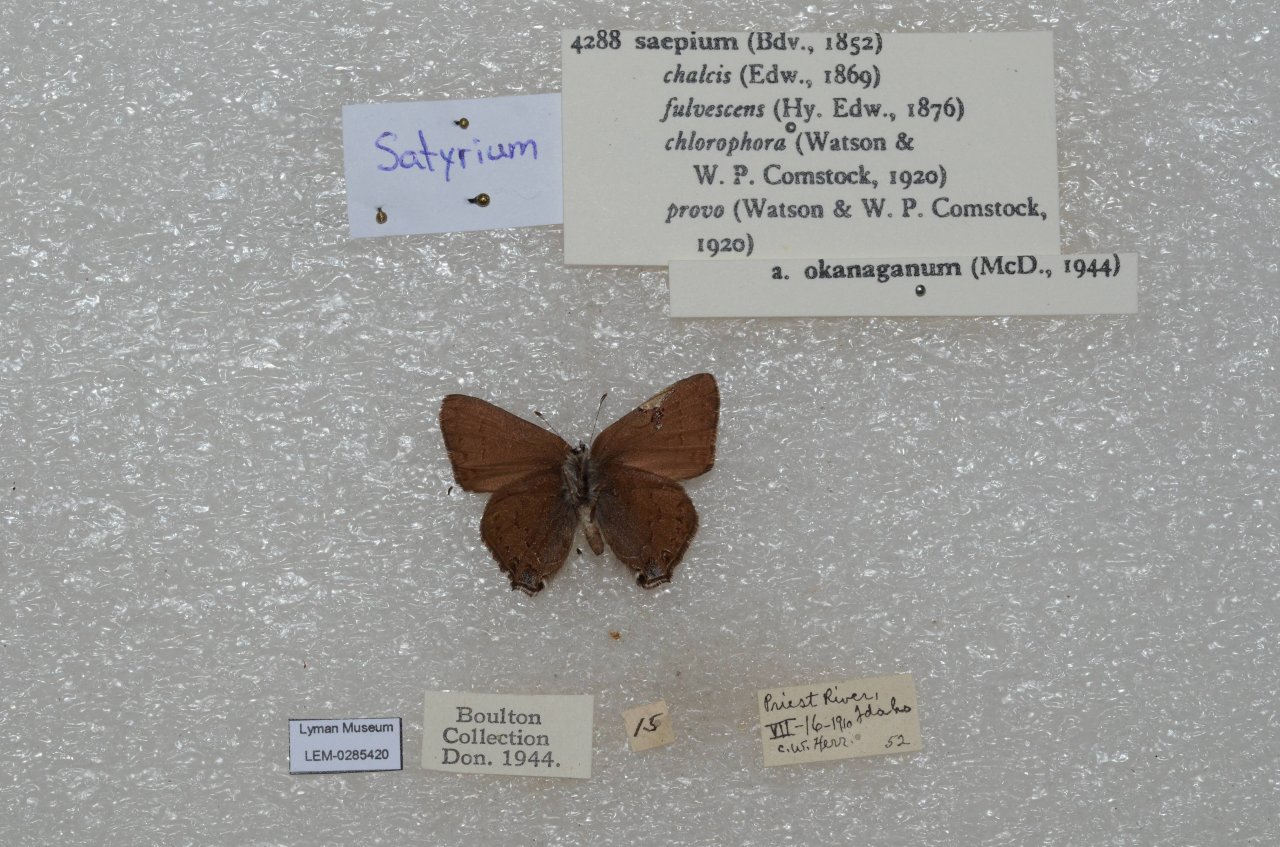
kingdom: Animalia
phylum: Arthropoda
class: Insecta
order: Lepidoptera
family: Lycaenidae
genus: Strymon
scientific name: Strymon saepium
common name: Hedgerow Hairstreak
